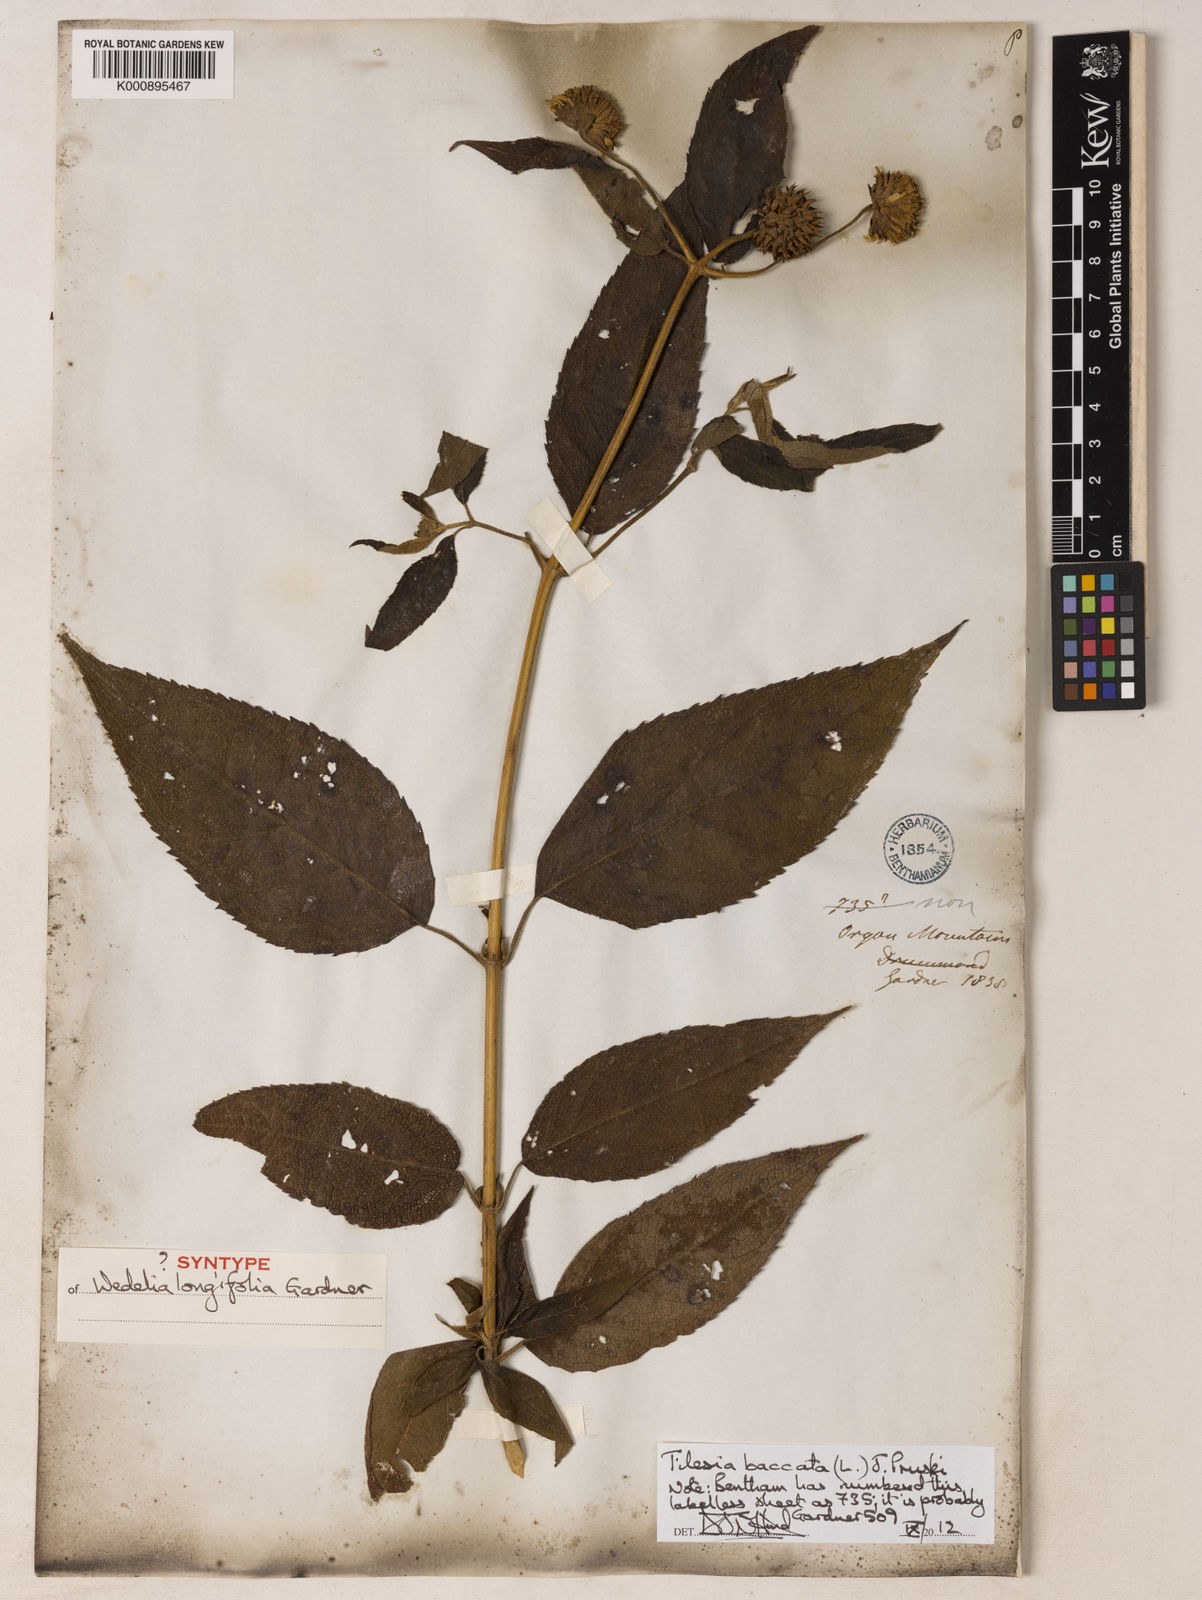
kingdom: Plantae
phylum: Tracheophyta
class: Magnoliopsida
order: Asterales
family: Asteraceae
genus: Tilesia
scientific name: Tilesia baccata
